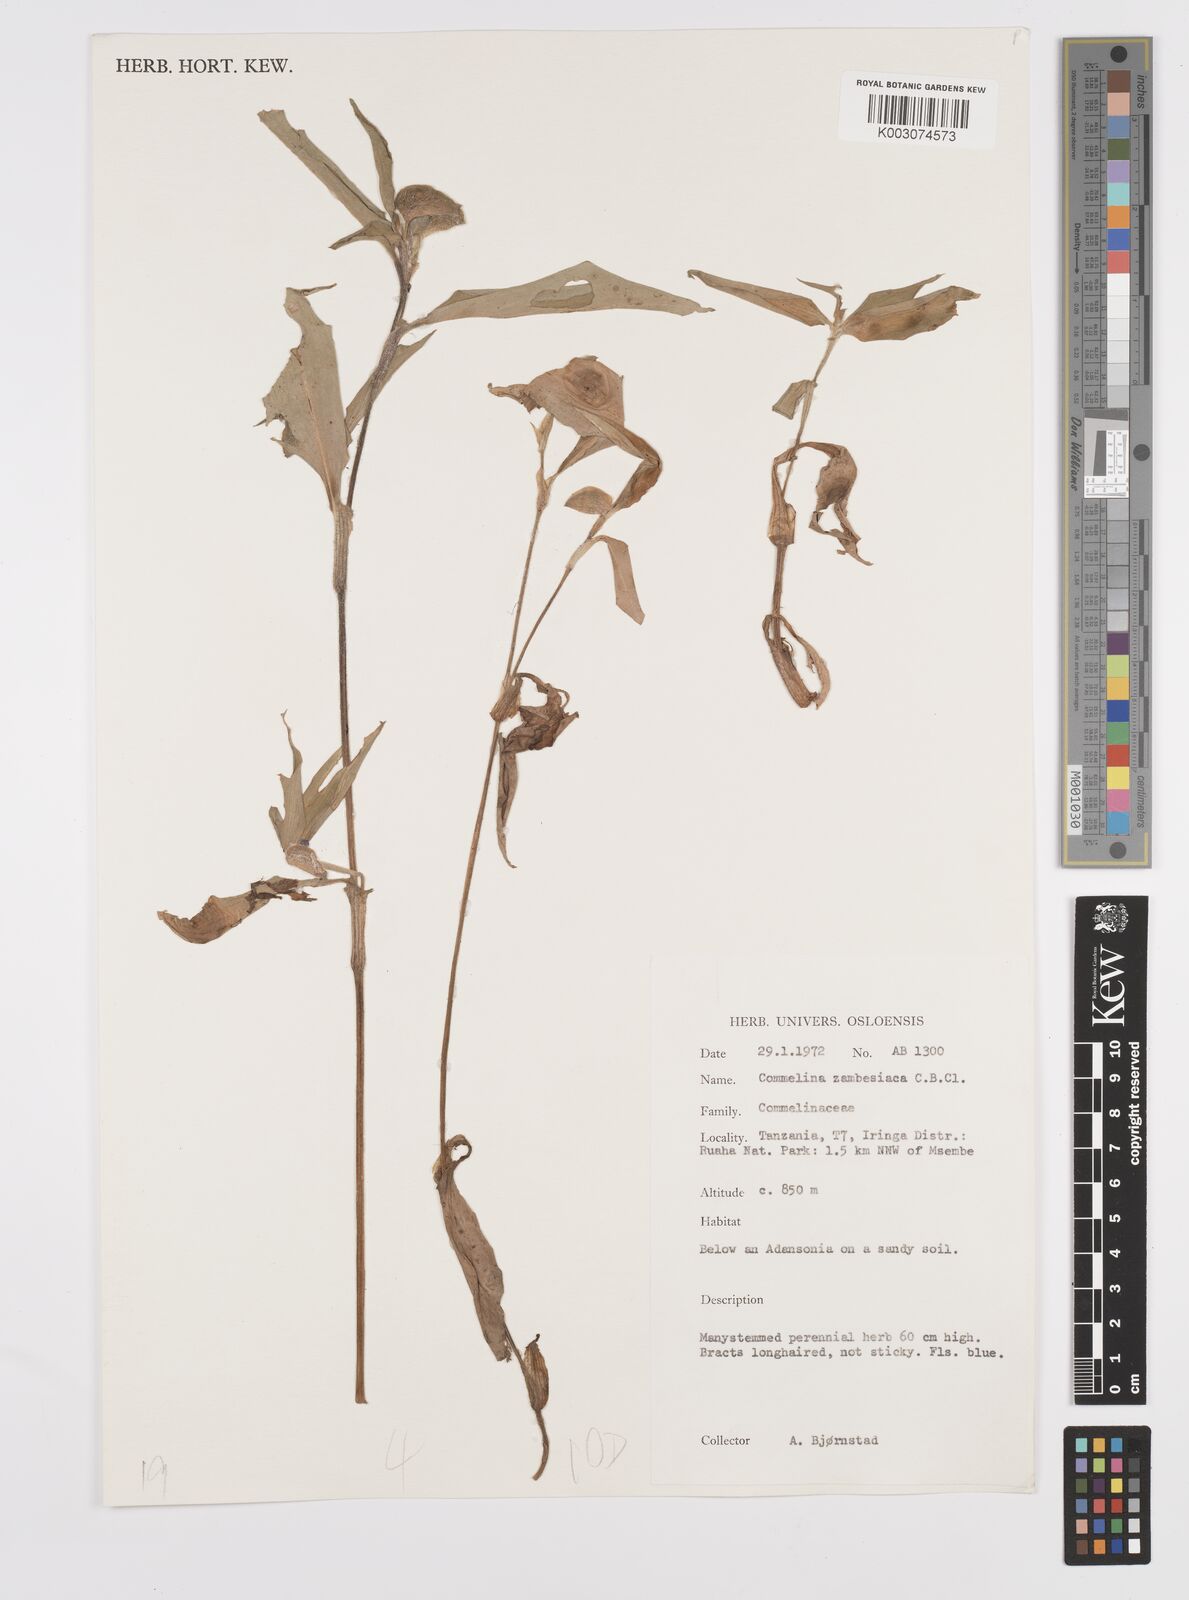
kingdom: Plantae
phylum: Tracheophyta
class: Liliopsida
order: Commelinales
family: Commelinaceae
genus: Commelina
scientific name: Commelina zambesica
